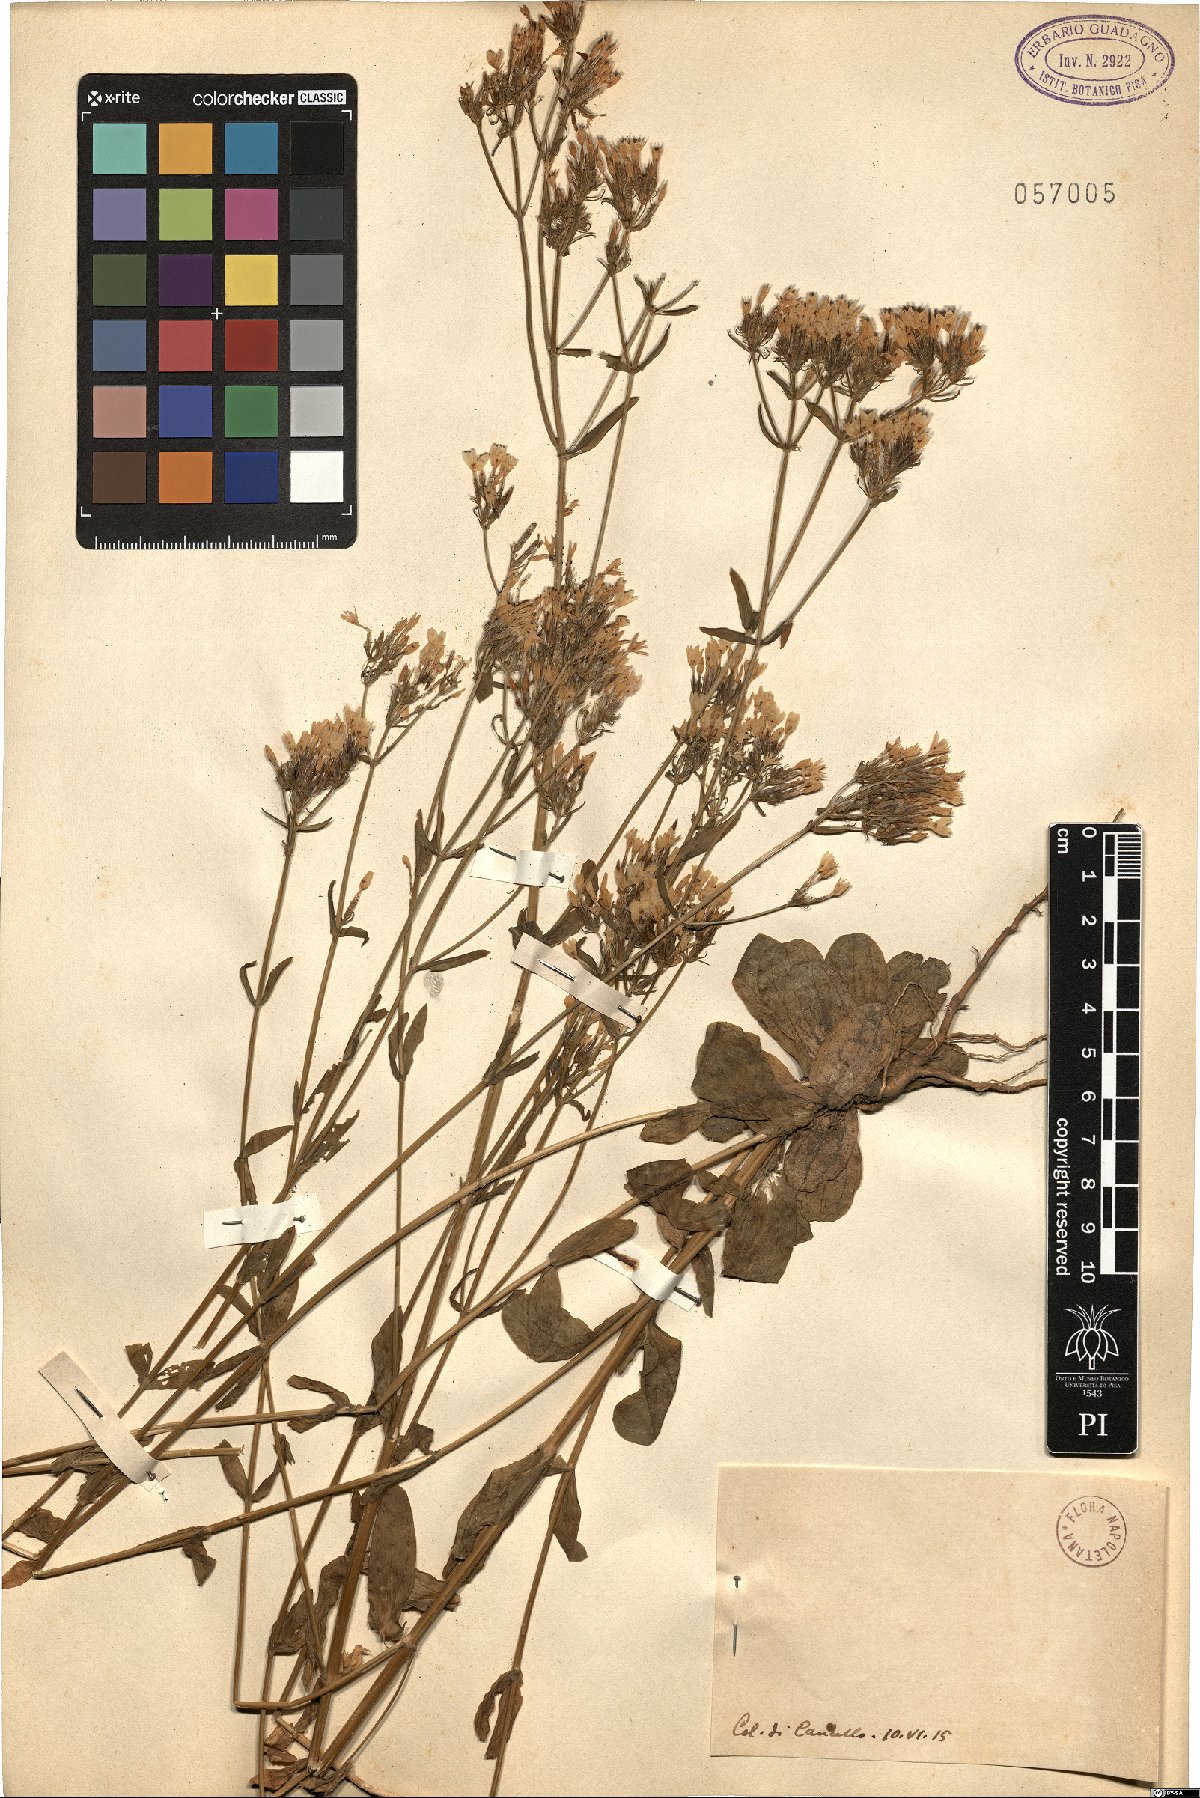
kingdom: Plantae
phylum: Tracheophyta
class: Magnoliopsida
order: Gentianales
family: Gentianaceae
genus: Erythraea
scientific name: Erythraea
